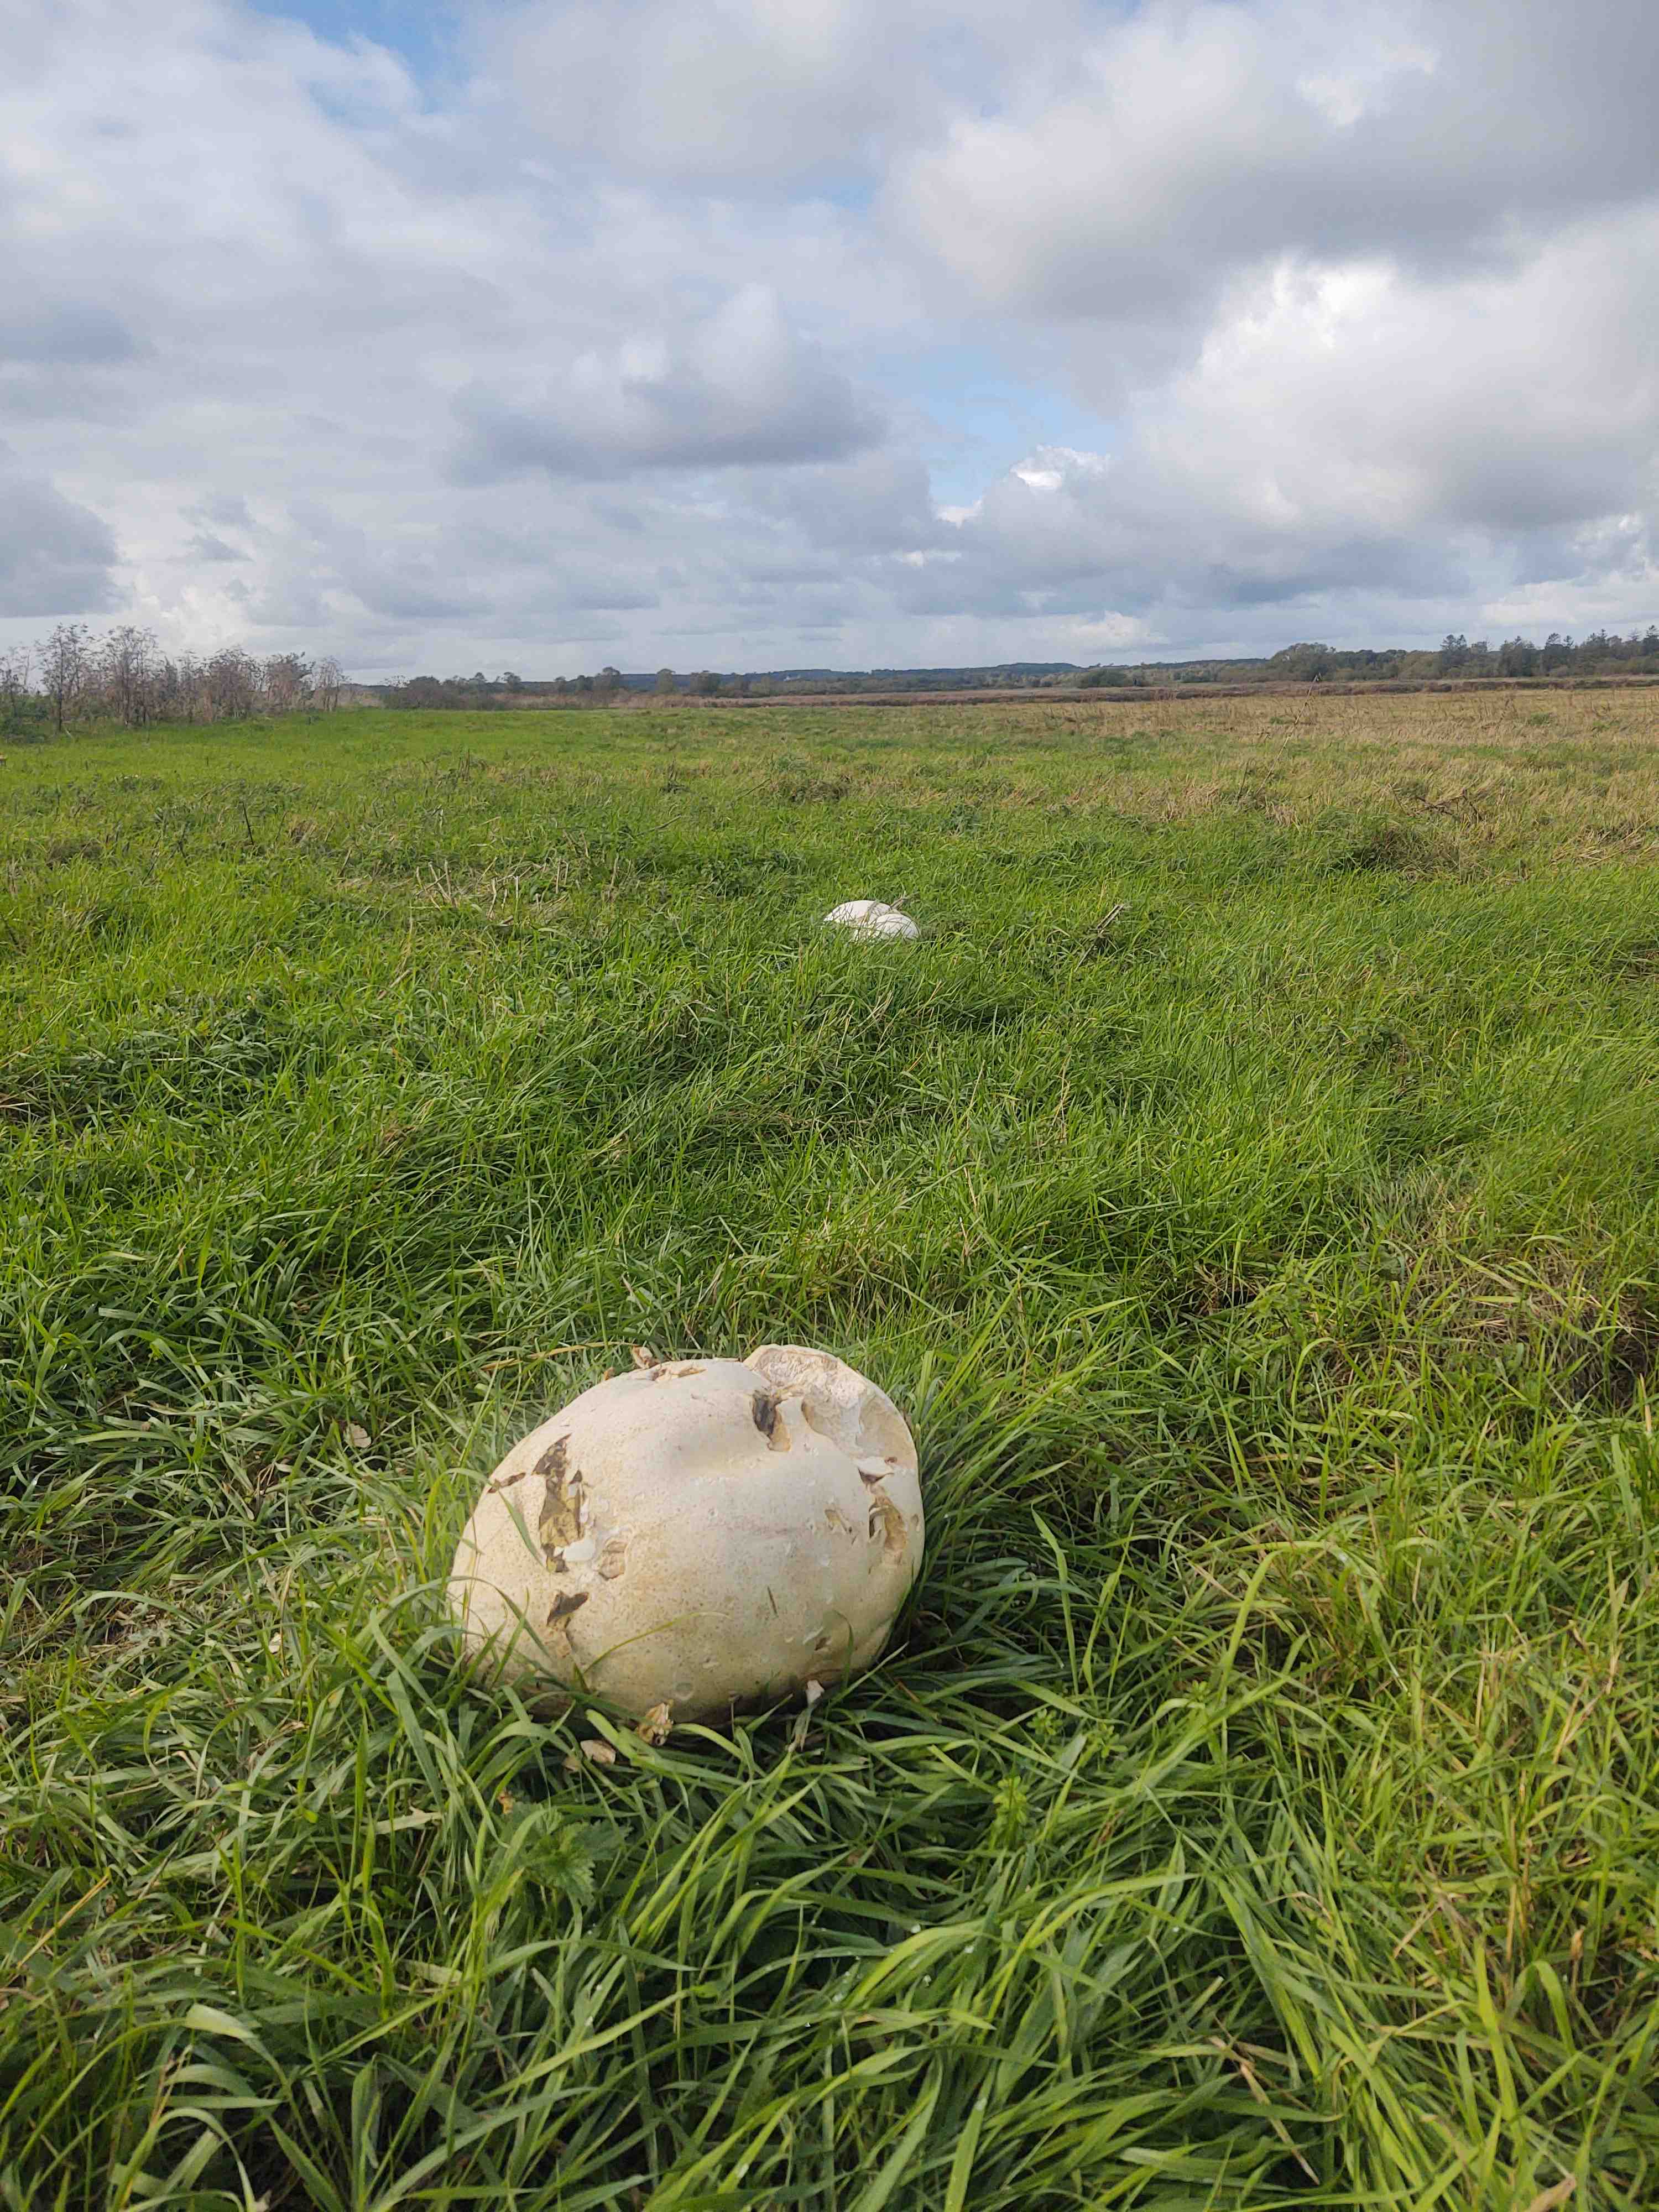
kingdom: Fungi
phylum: Basidiomycota
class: Agaricomycetes
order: Agaricales
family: Lycoperdaceae
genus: Calvatia
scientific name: Calvatia gigantea
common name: kæmpestøvbold
